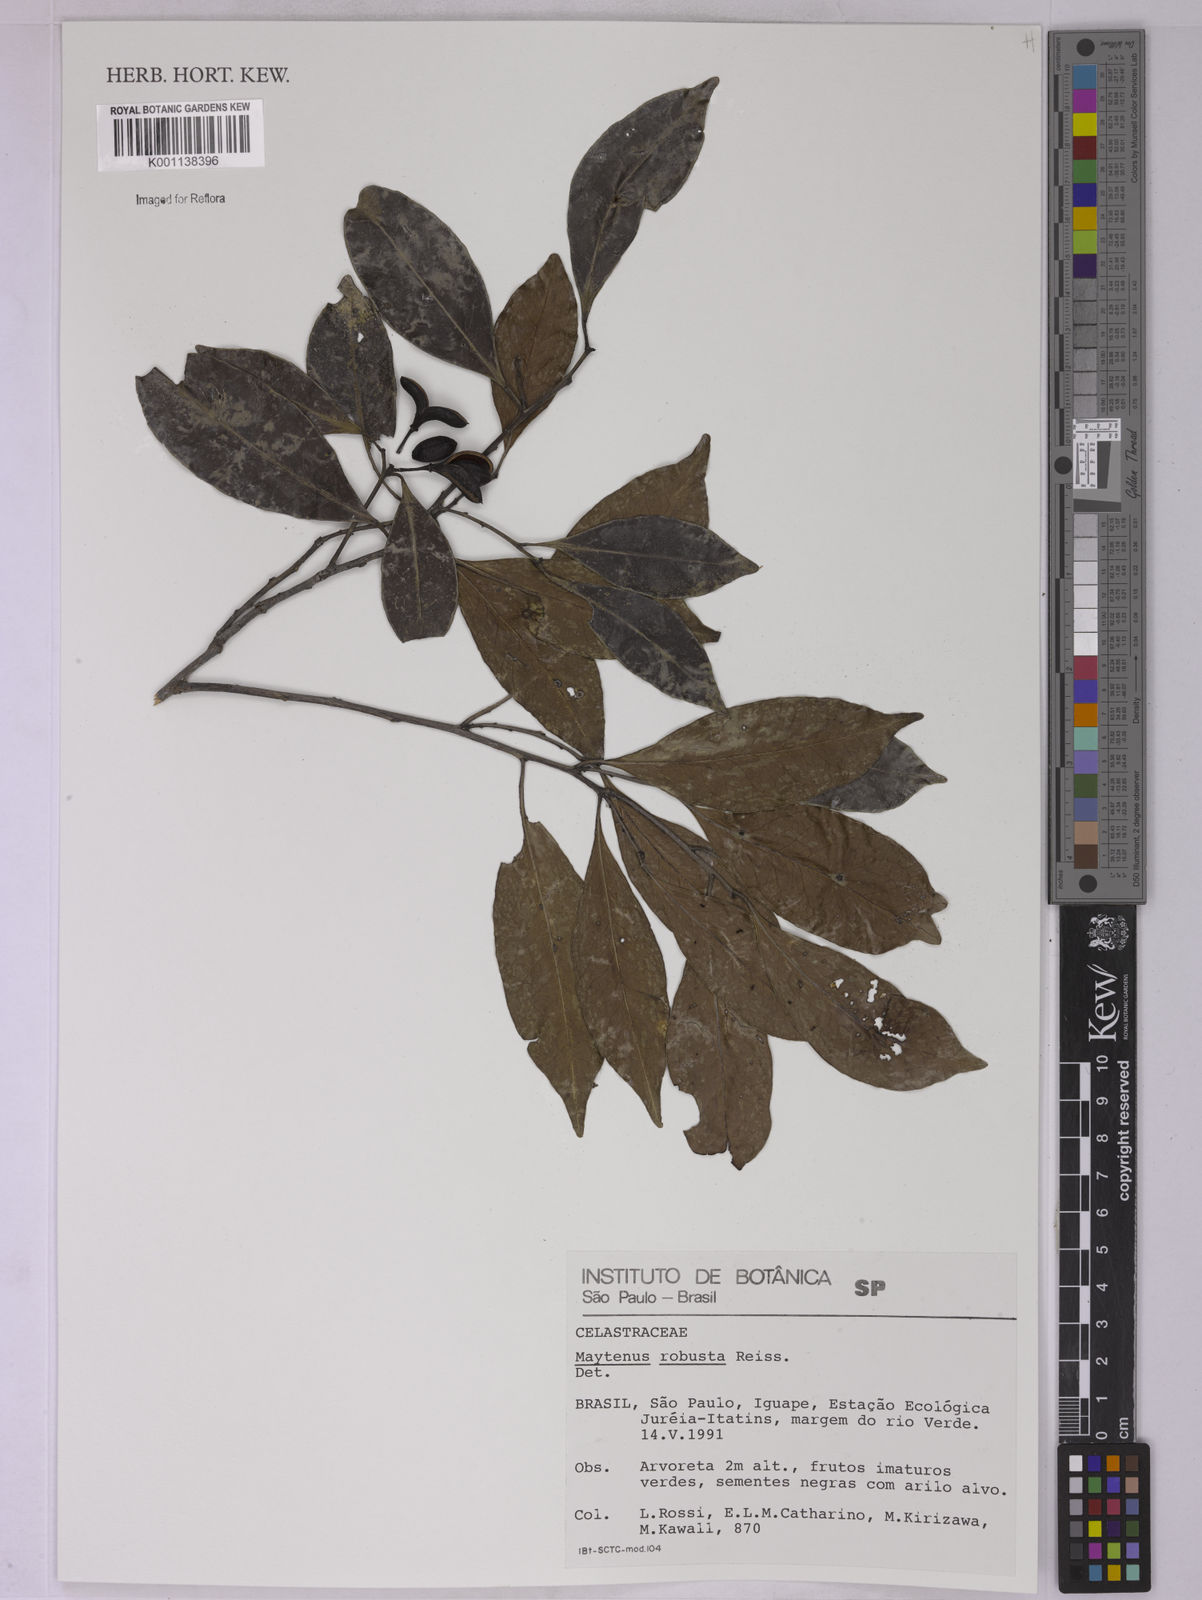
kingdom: Plantae
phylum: Tracheophyta
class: Magnoliopsida
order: Celastrales
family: Celastraceae
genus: Monteverdia
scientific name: Monteverdia robusta
